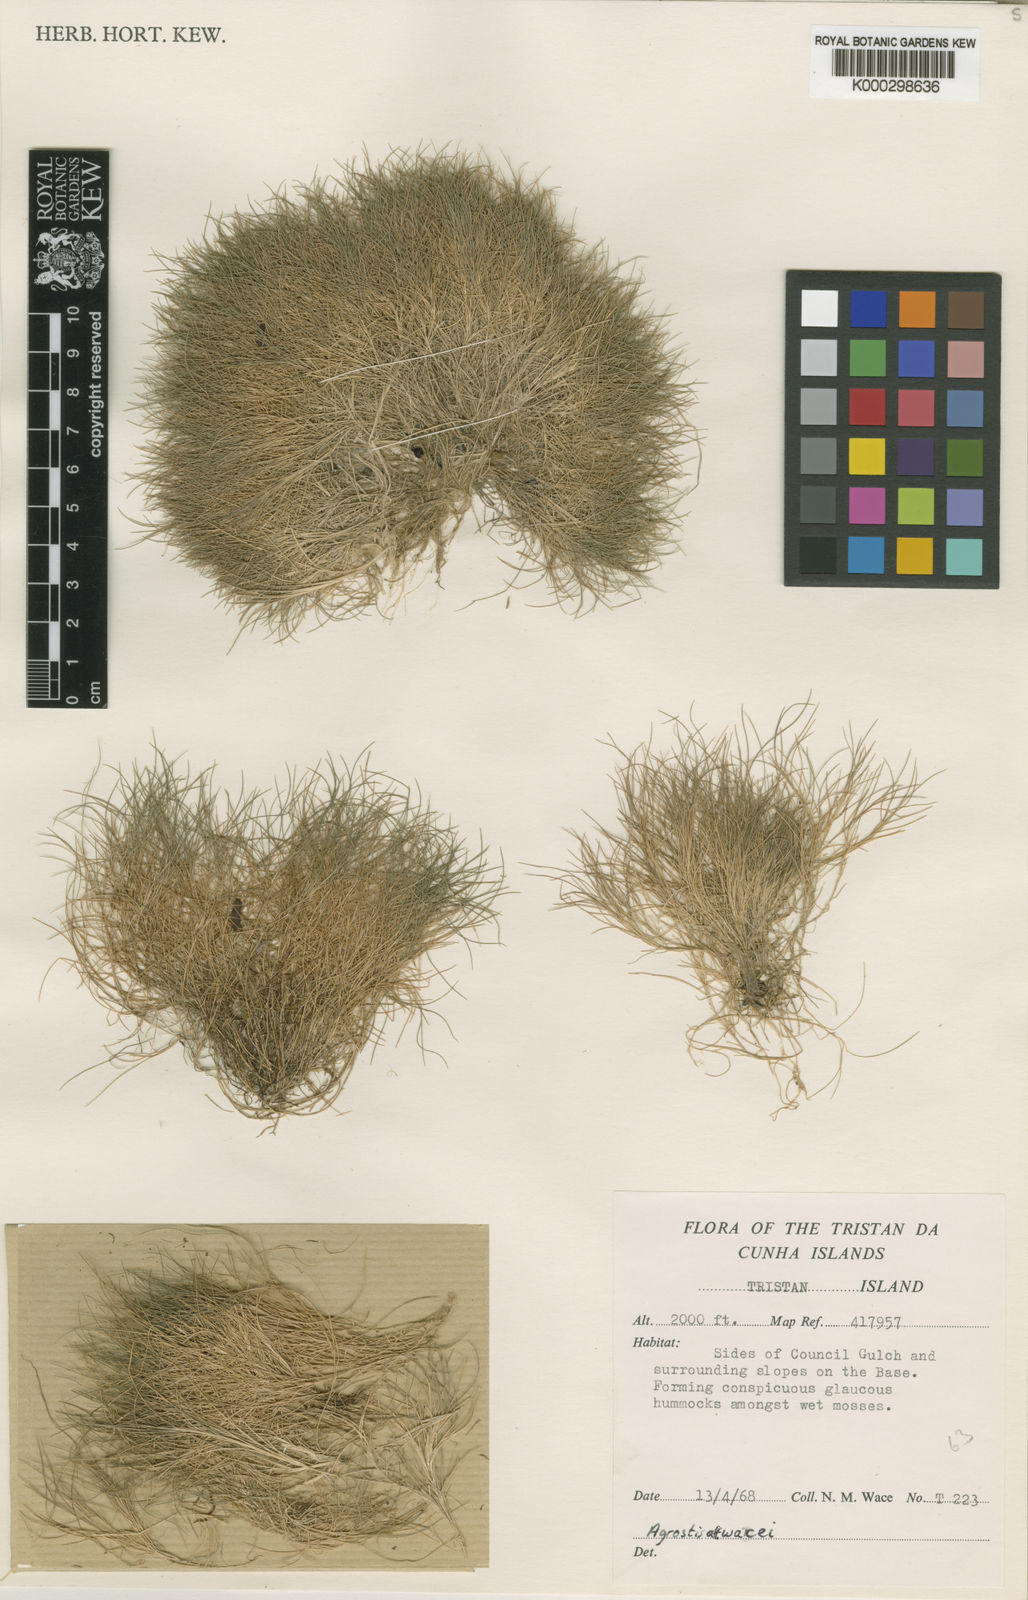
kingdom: Plantae
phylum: Tracheophyta
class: Liliopsida
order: Poales
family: Poaceae
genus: Agrostis
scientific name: Agrostis wacei
